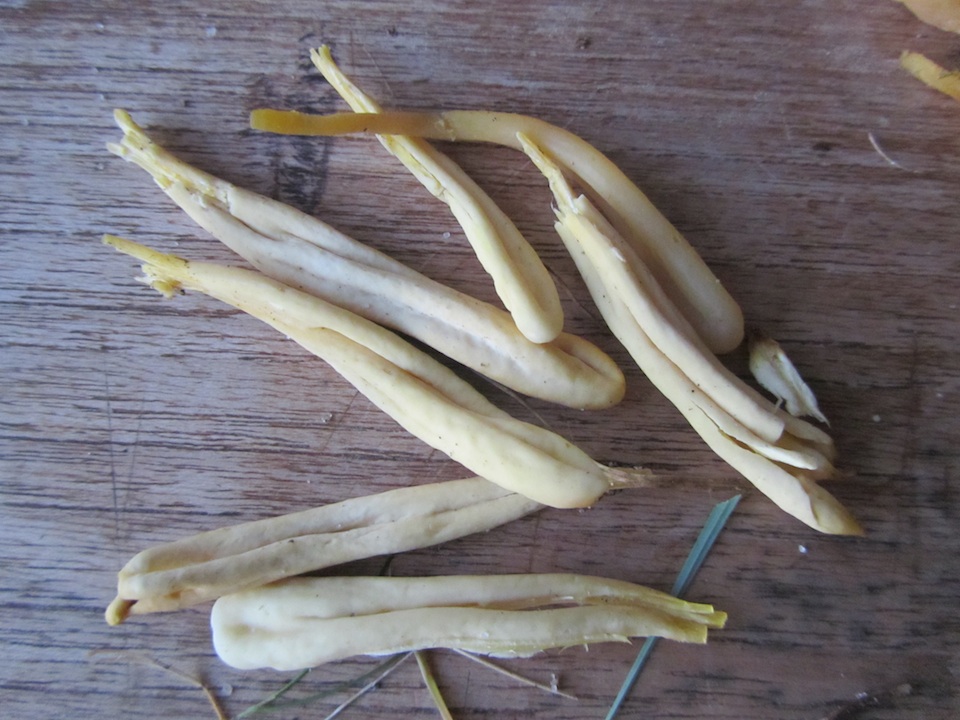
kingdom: Fungi
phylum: Basidiomycota
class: Agaricomycetes
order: Agaricales
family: Clavariaceae
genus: Clavaria
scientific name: Clavaria argillacea
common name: lerfarvet køllesvamp
